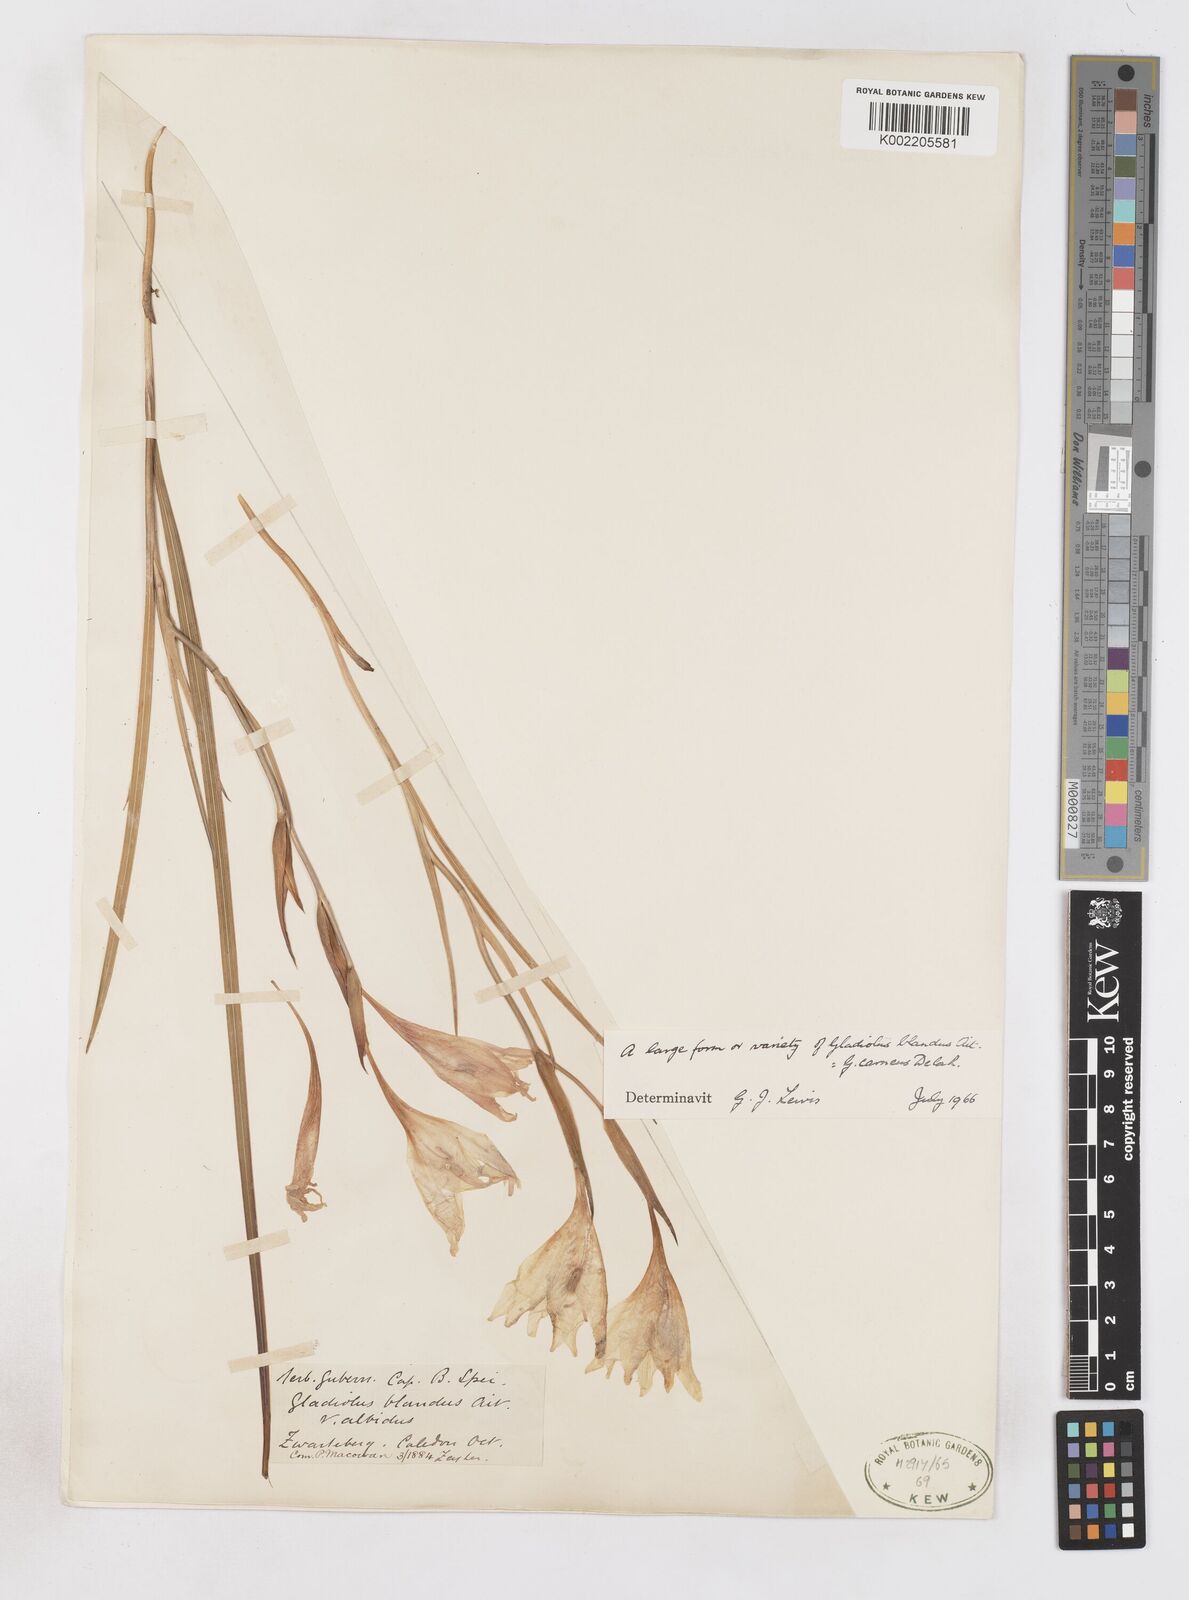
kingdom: Plantae
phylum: Tracheophyta
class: Liliopsida
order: Asparagales
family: Iridaceae
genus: Gladiolus
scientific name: Gladiolus carneus
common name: Painted-lady
